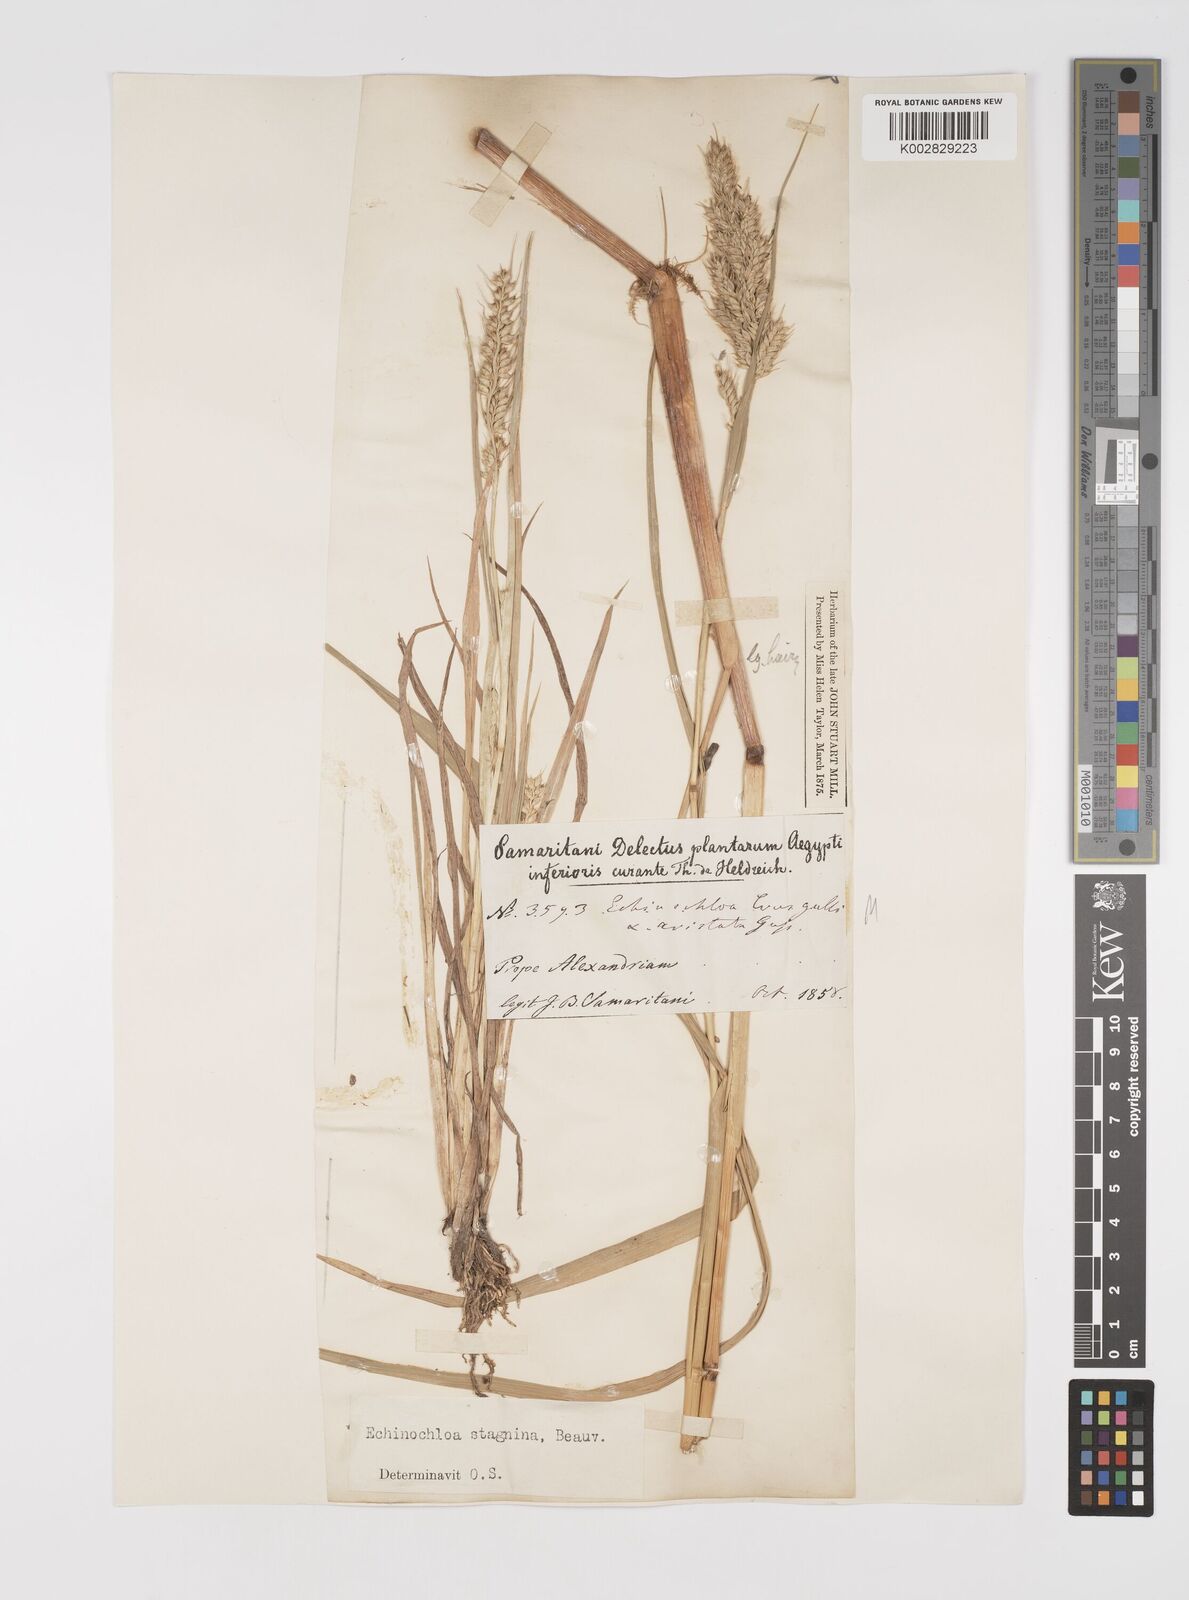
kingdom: Plantae
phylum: Tracheophyta
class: Liliopsida
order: Poales
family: Poaceae
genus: Echinochloa
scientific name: Echinochloa crus-galli
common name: Cockspur
